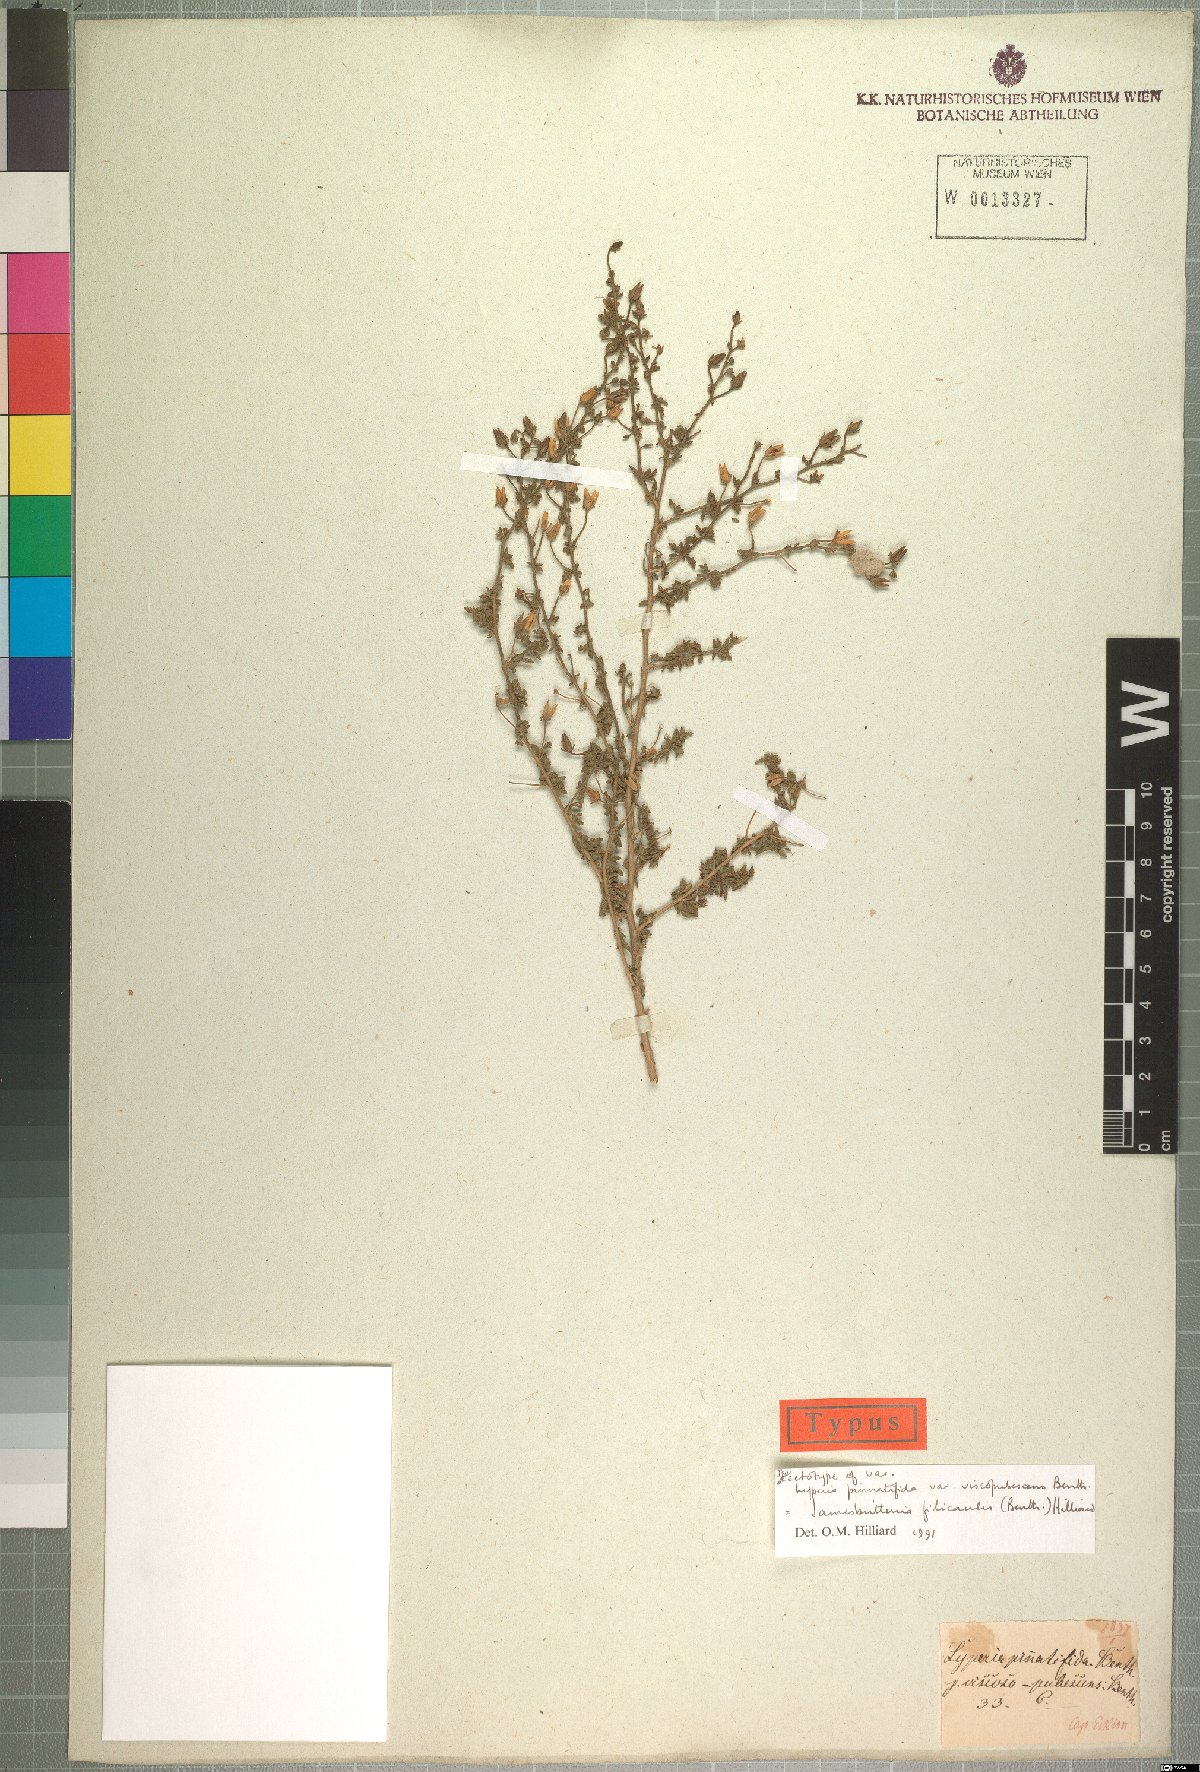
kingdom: Plantae
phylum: Tracheophyta
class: Magnoliopsida
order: Lamiales
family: Scrophulariaceae
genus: Jamesbrittenia
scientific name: Jamesbrittenia filicaulis
